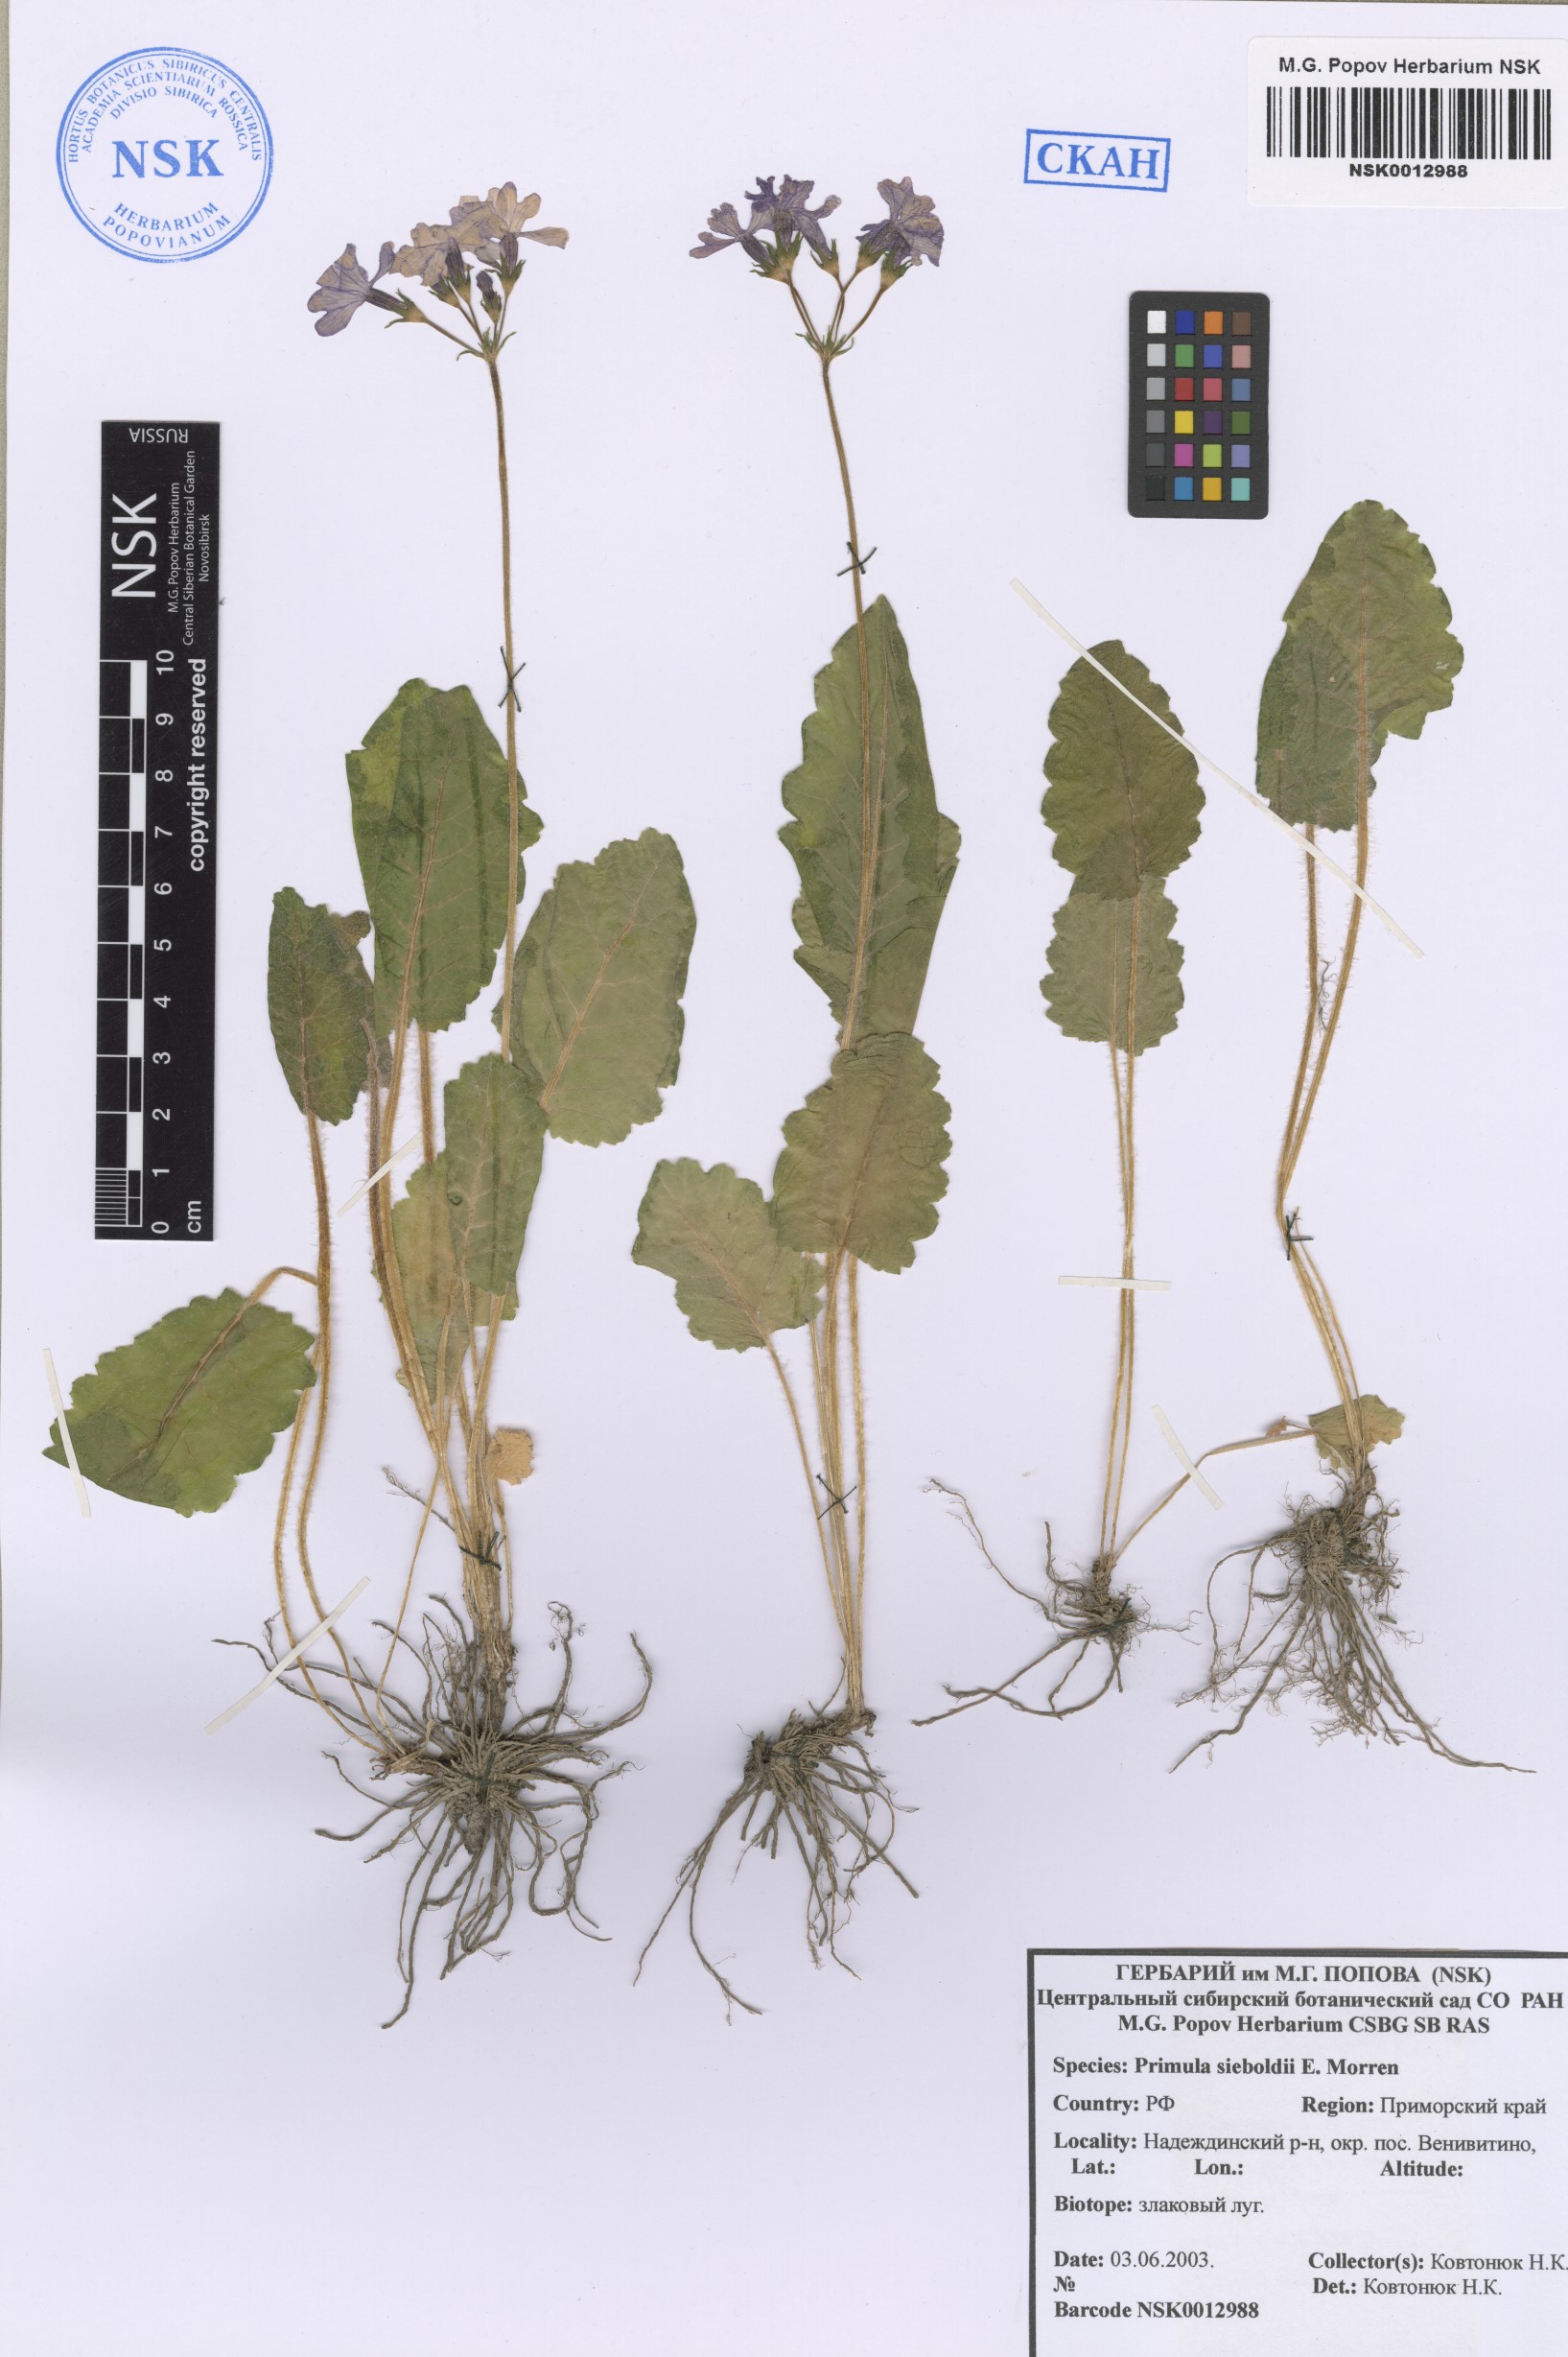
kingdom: Plantae
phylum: Tracheophyta
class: Magnoliopsida
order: Ericales
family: Primulaceae
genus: Primula
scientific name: Primula sieboldii
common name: Japanese primrose
